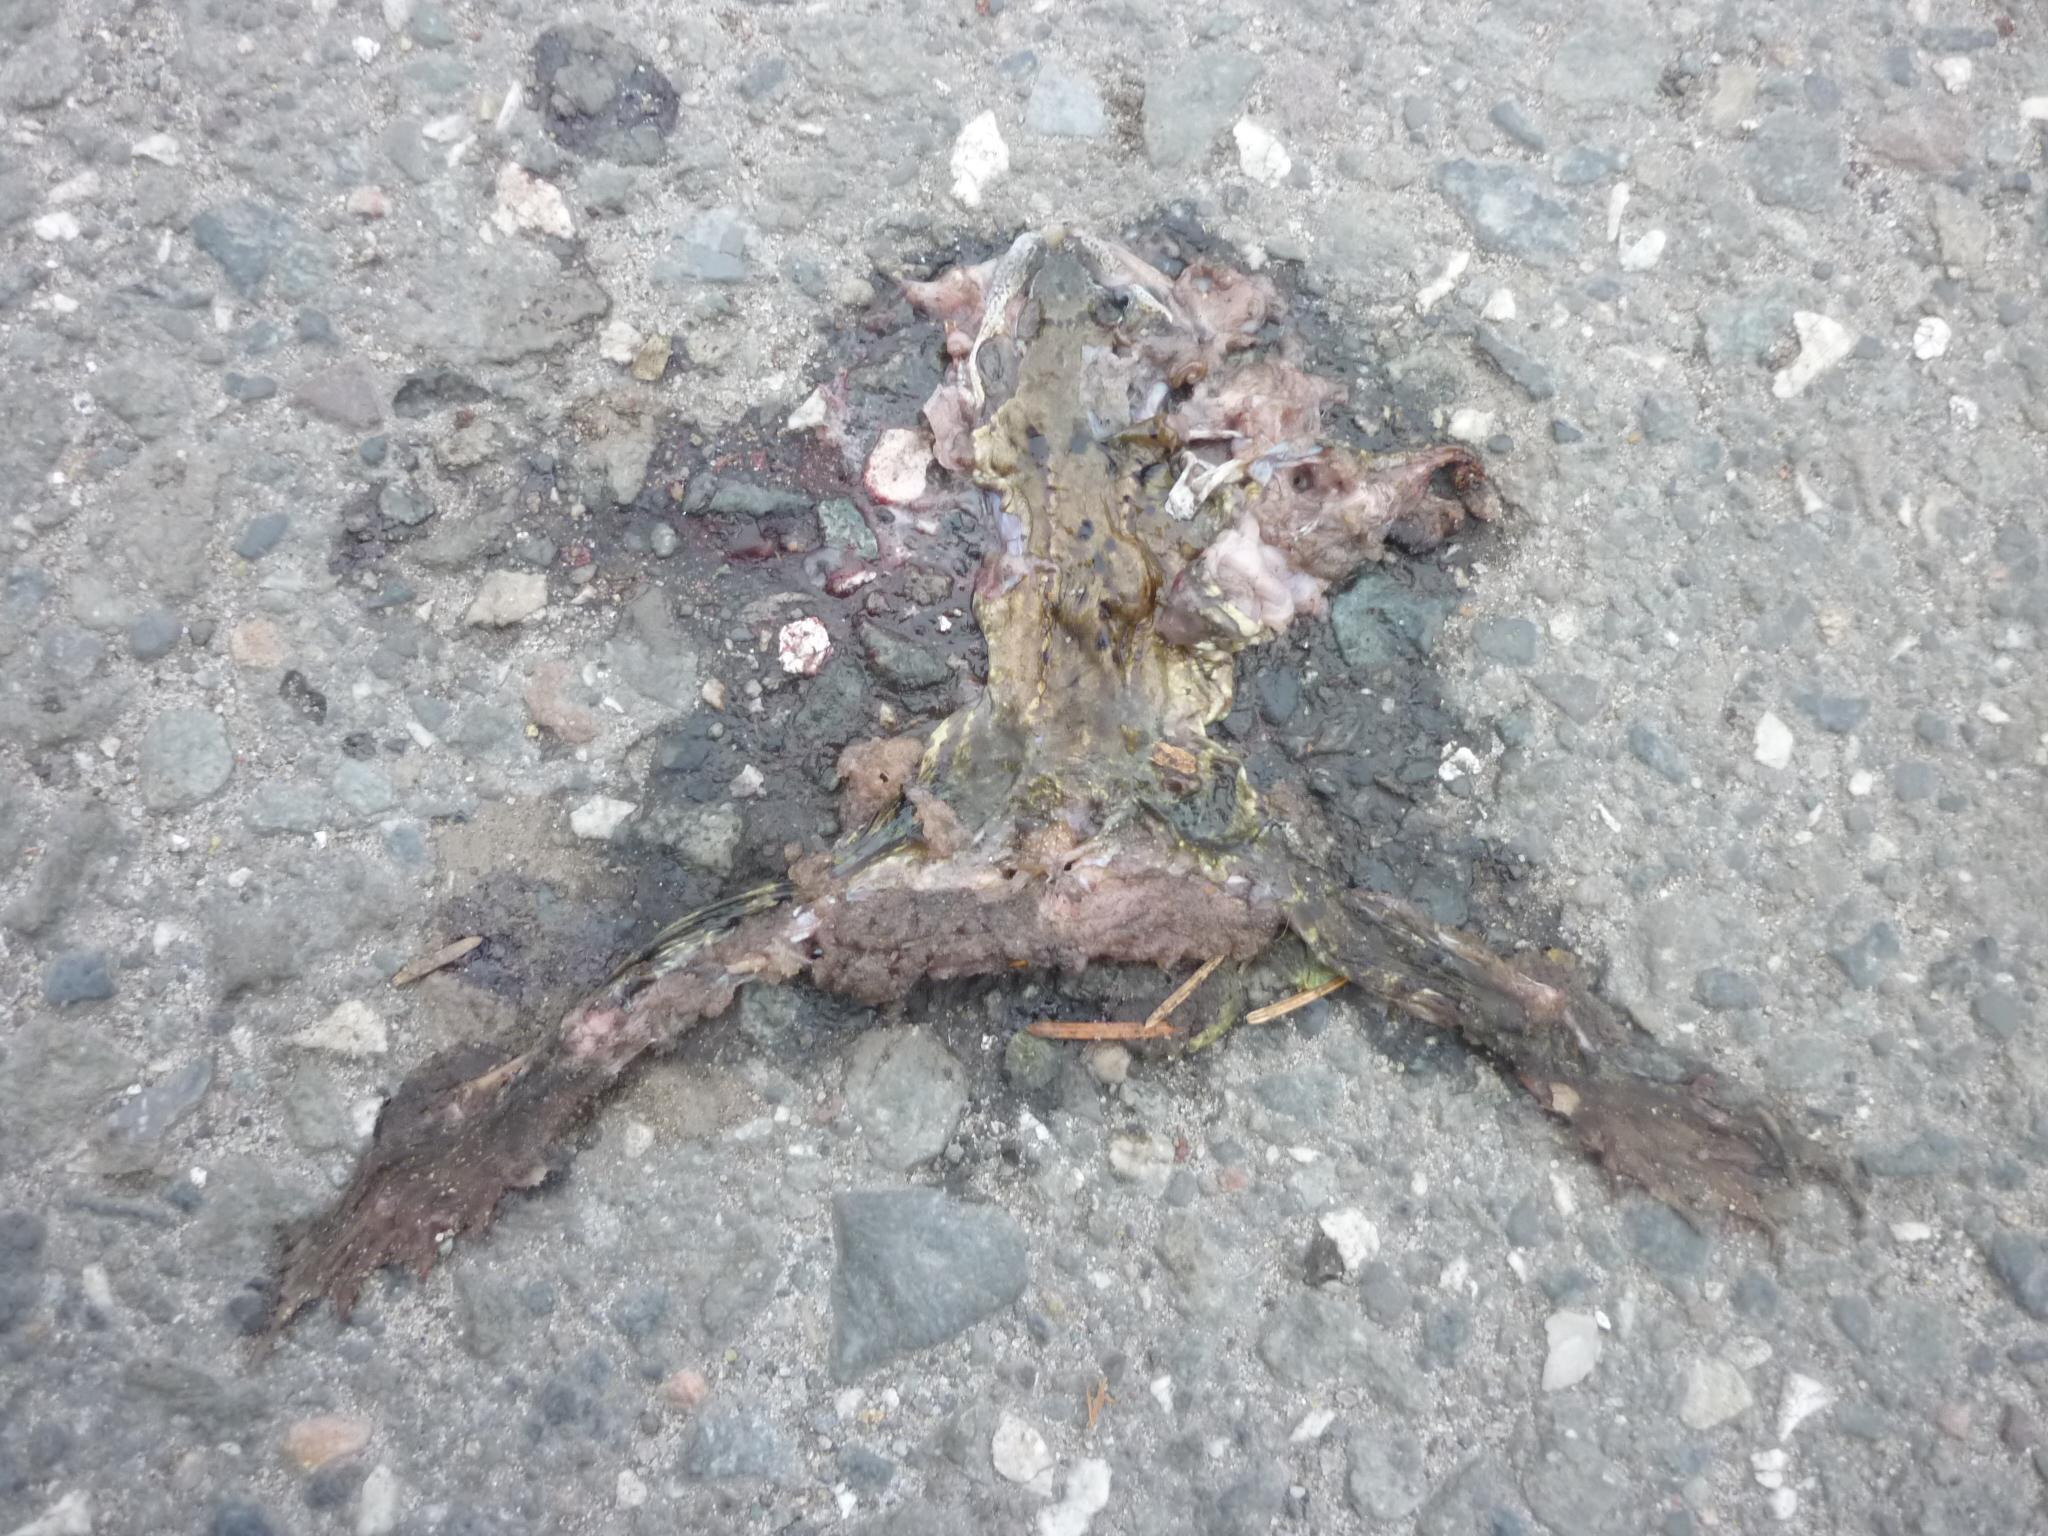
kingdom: Animalia
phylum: Chordata
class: Amphibia
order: Anura
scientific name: Anura
